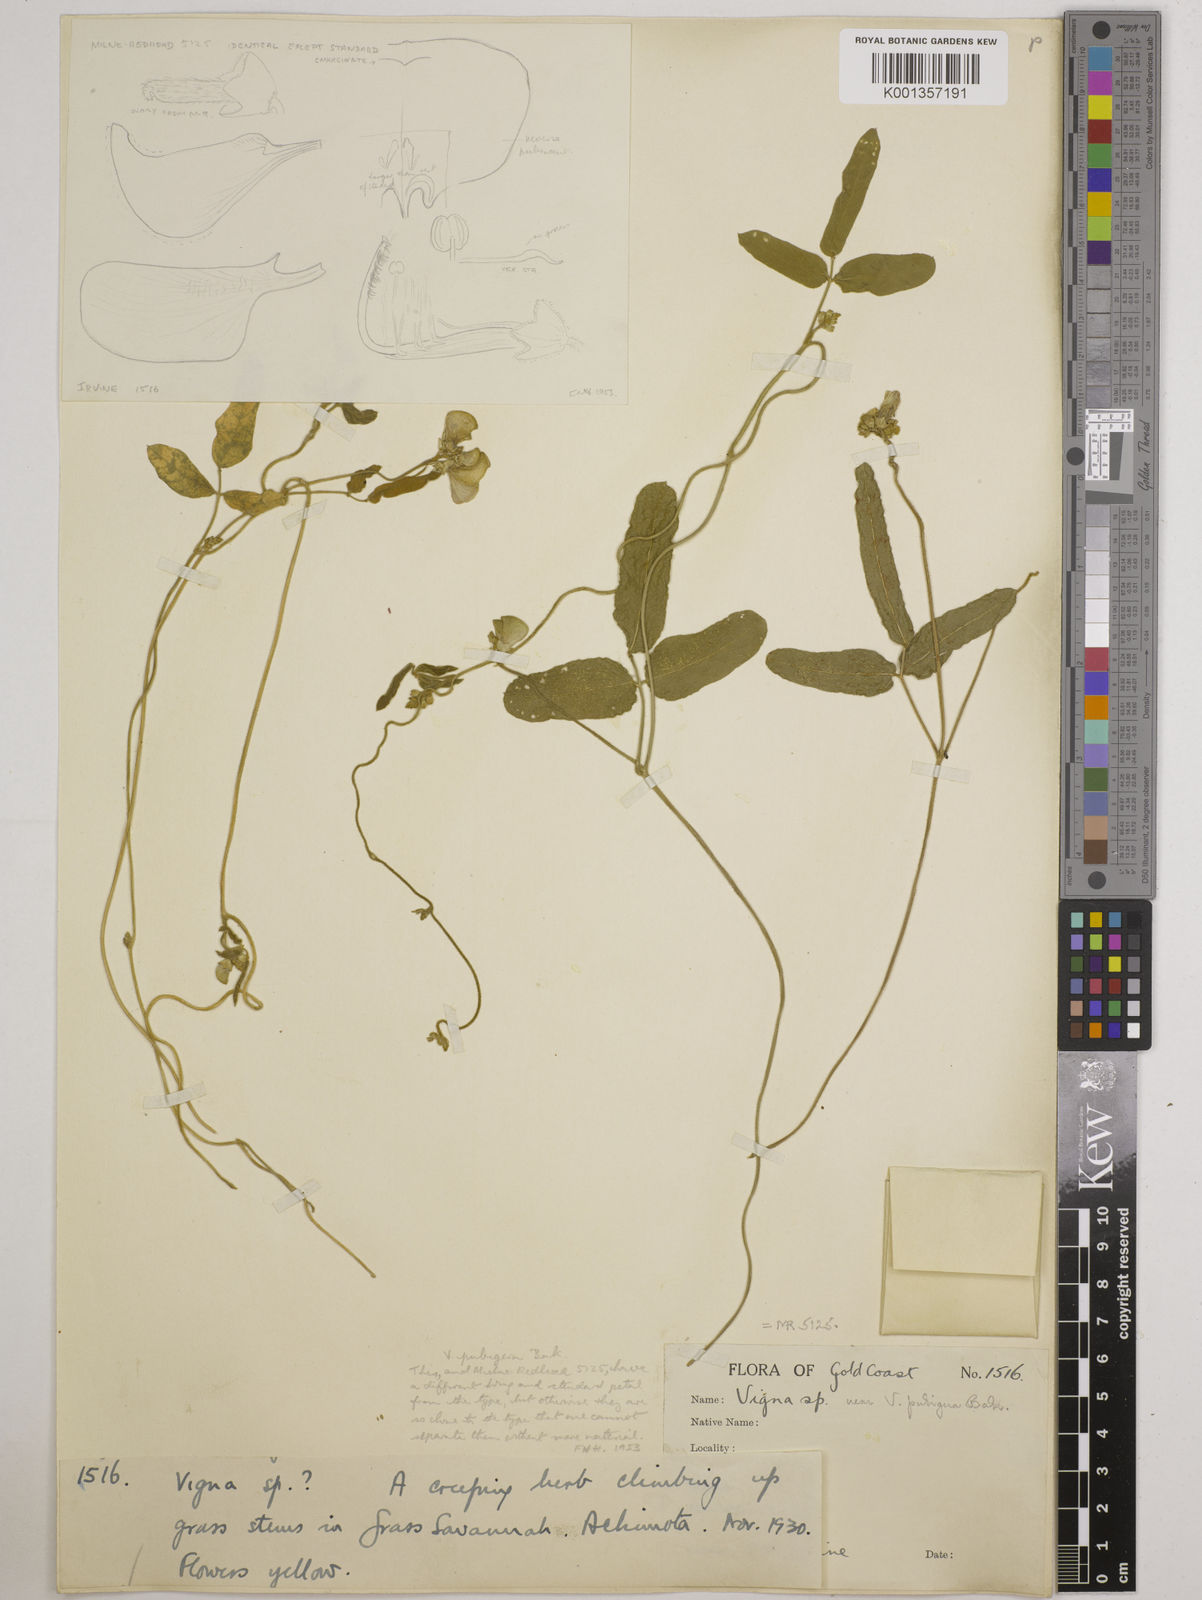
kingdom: Plantae
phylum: Tracheophyta
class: Magnoliopsida
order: Fabales
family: Fabaceae
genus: Vigna
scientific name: Vigna ambacensis
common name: Tsarkiyan zomo
